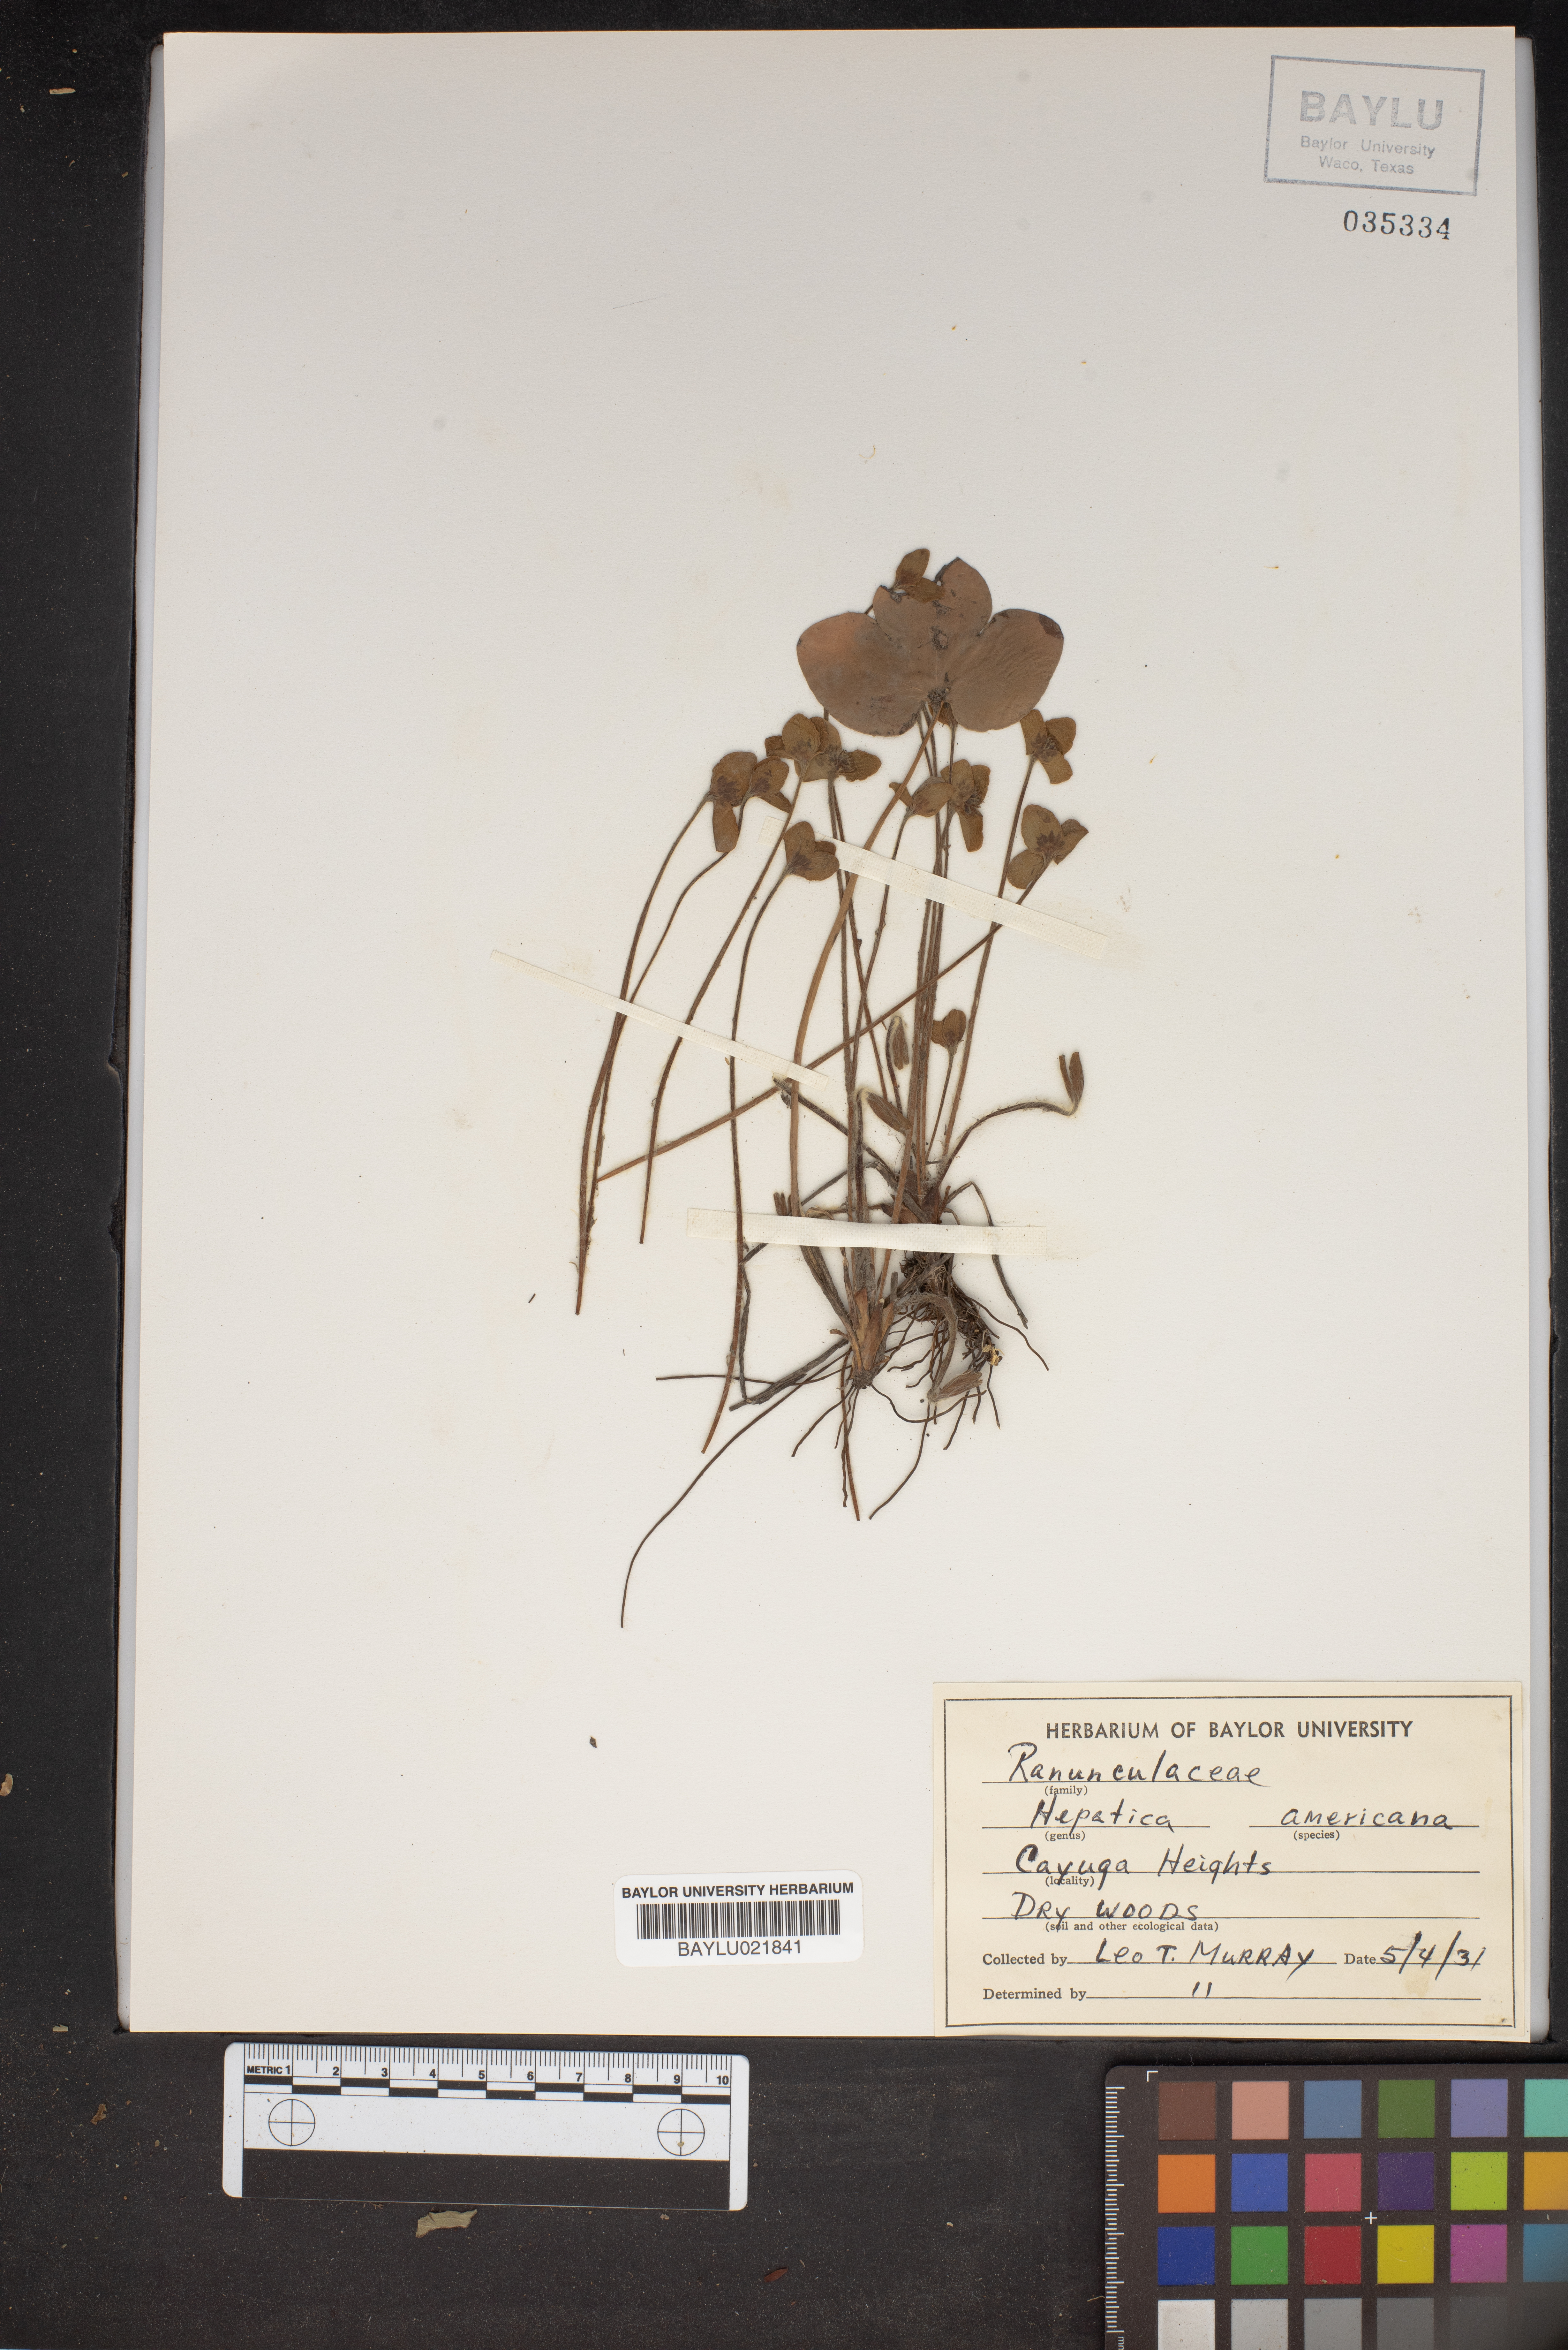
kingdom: Plantae
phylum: Tracheophyta
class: Magnoliopsida
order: Ranunculales
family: Ranunculaceae
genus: Hepatica
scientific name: Hepatica americana
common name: American hepatica
